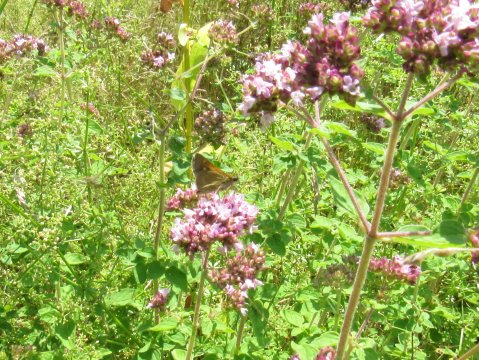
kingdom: Animalia
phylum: Arthropoda
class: Insecta
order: Lepidoptera
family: Hesperiidae
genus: Polites
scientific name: Polites themistocles
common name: Tawny-edged Skipper
